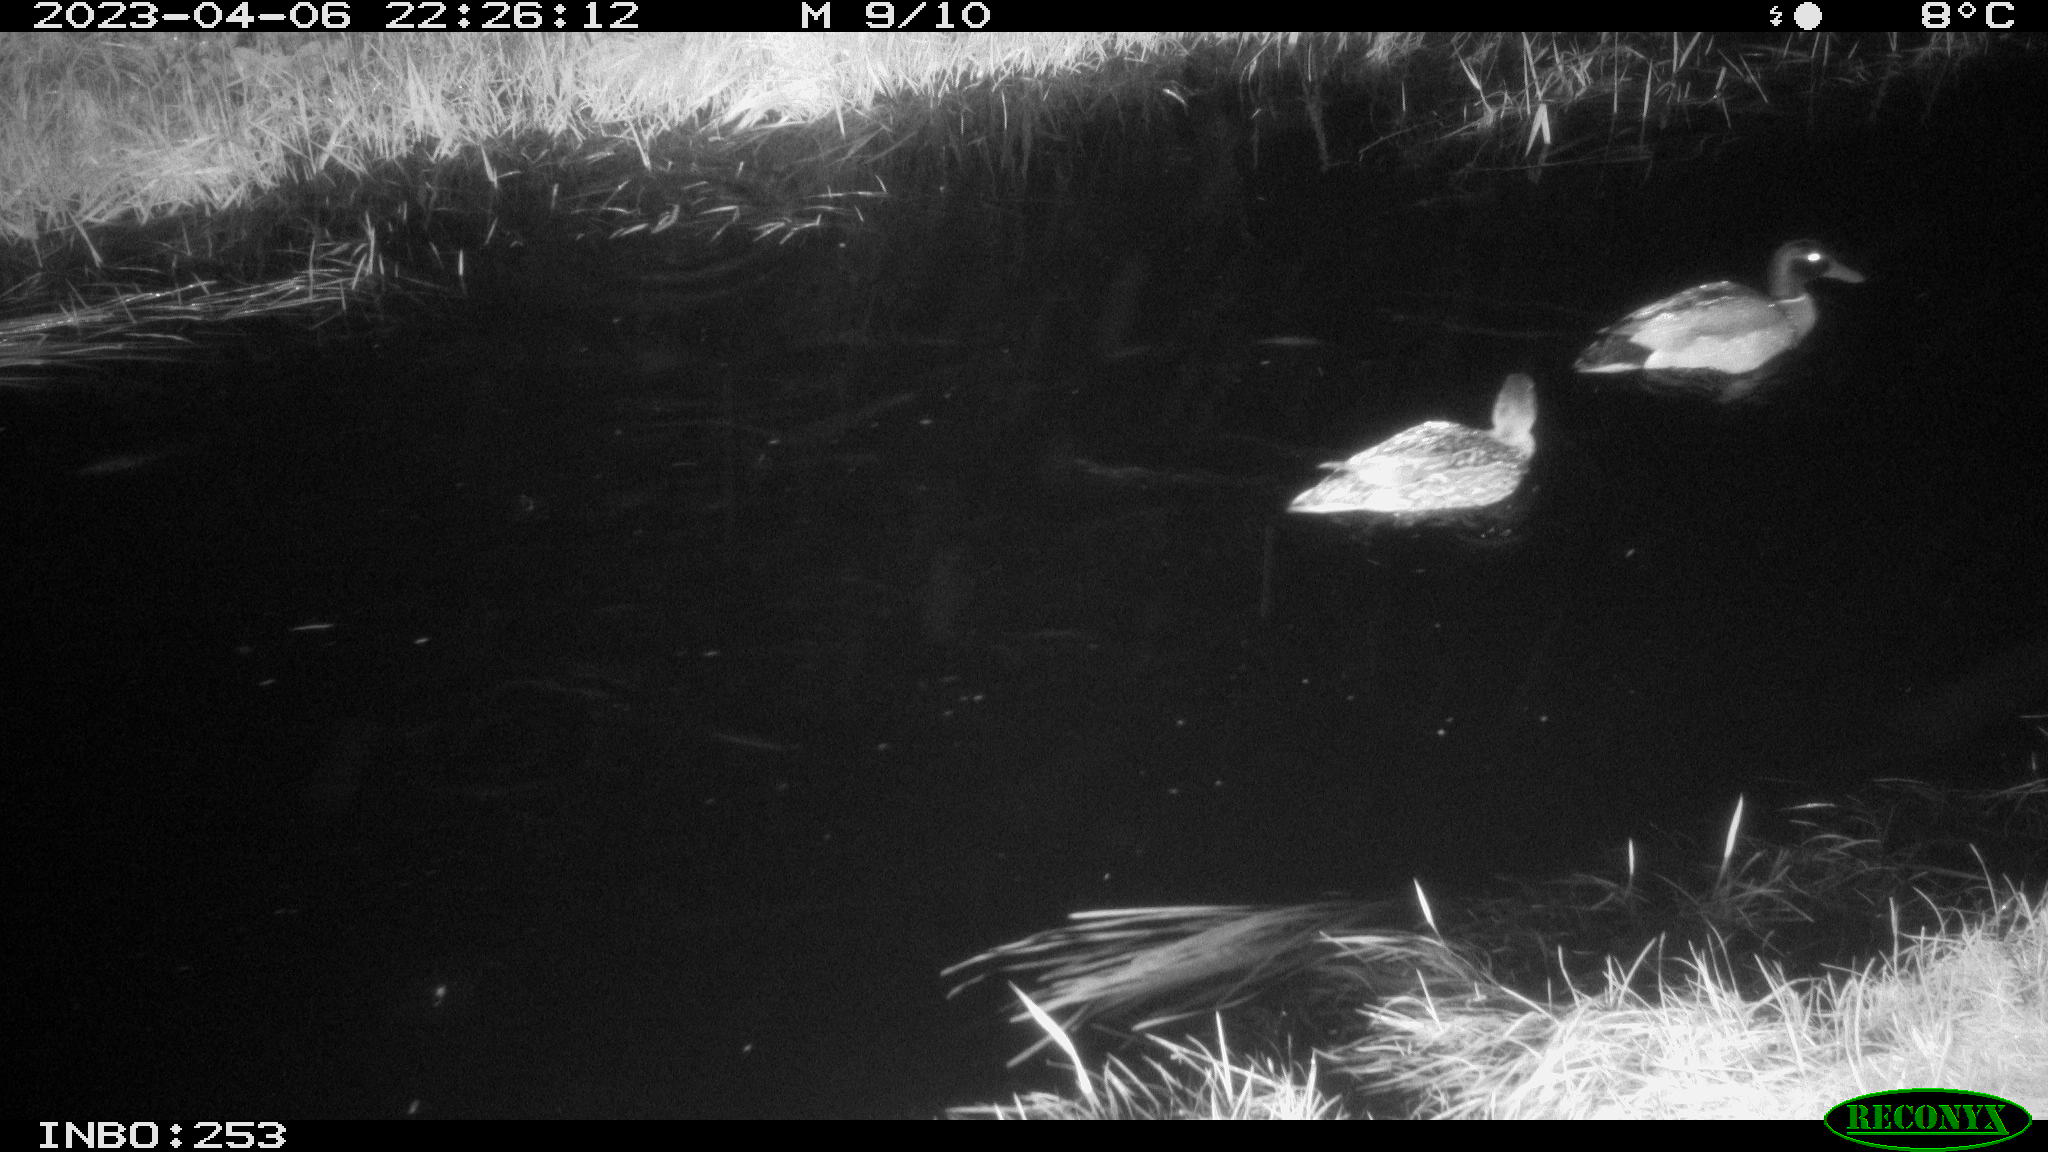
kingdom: Animalia
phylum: Chordata
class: Aves
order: Anseriformes
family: Anatidae
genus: Anas
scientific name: Anas
